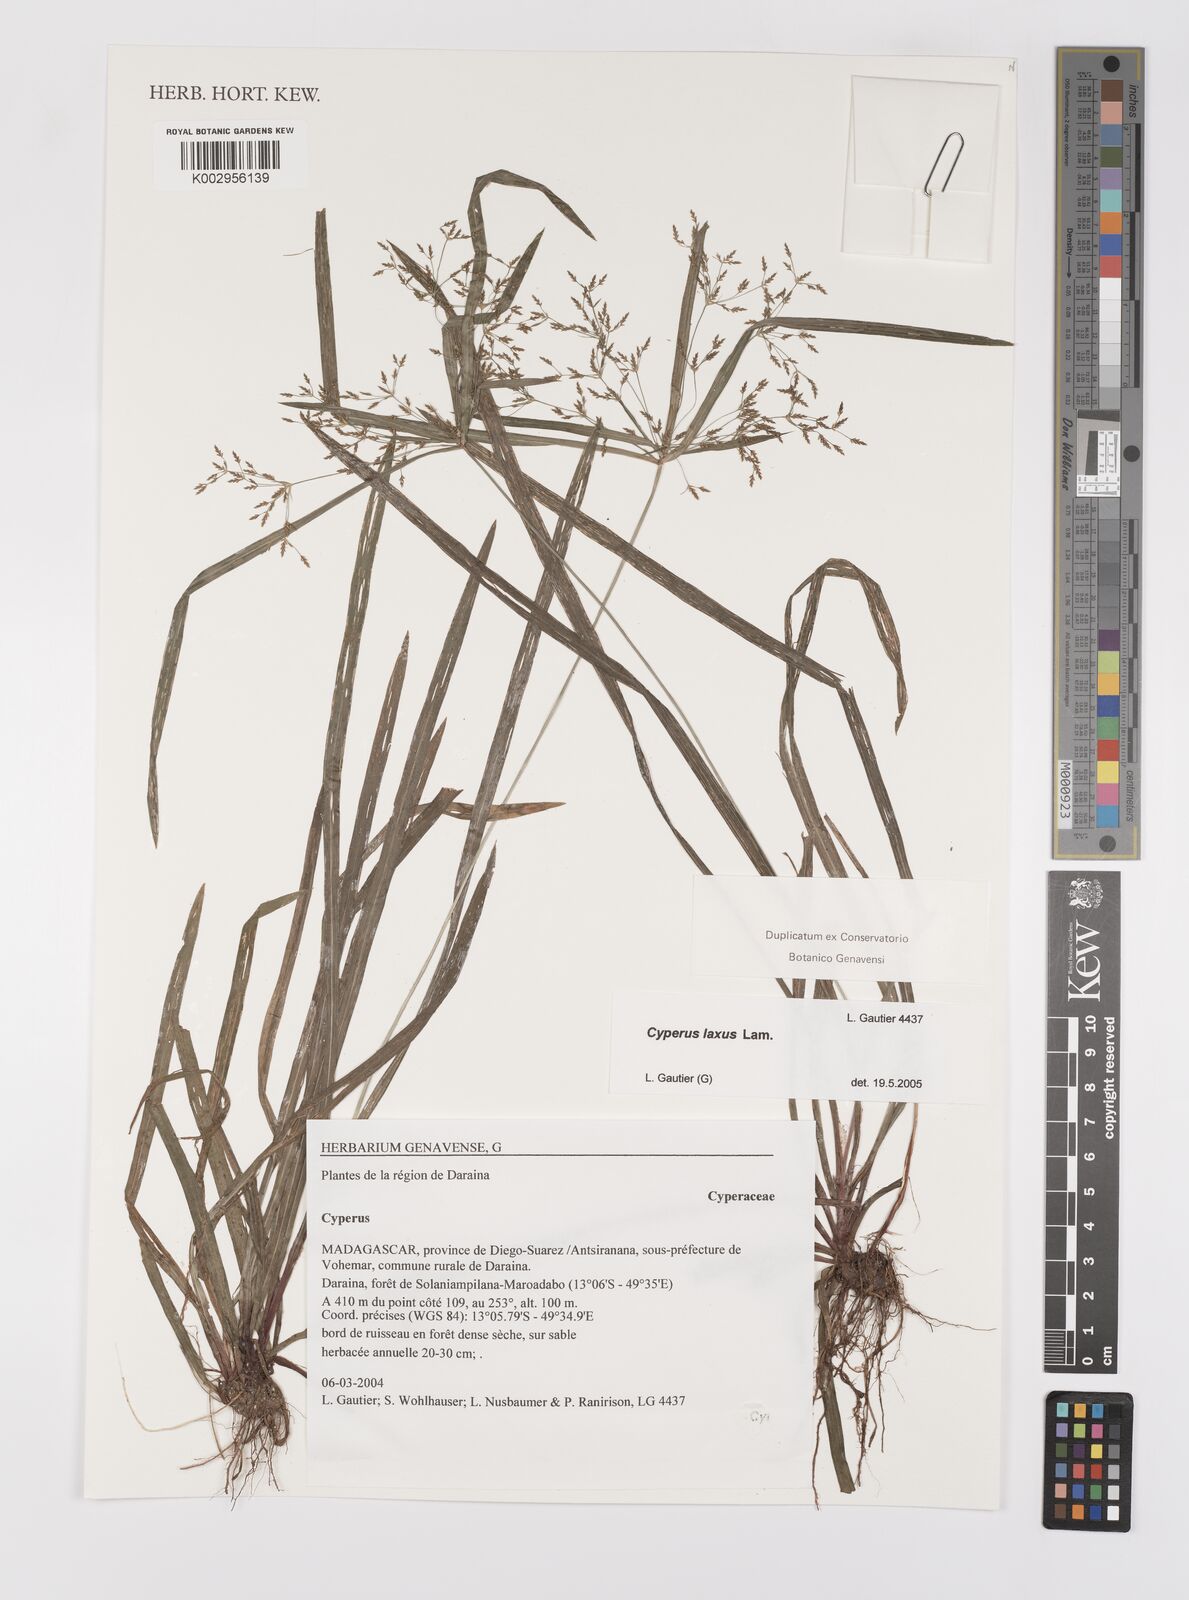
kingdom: Plantae
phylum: Tracheophyta
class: Liliopsida
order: Poales
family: Cyperaceae
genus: Cyperus
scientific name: Cyperus laxus
